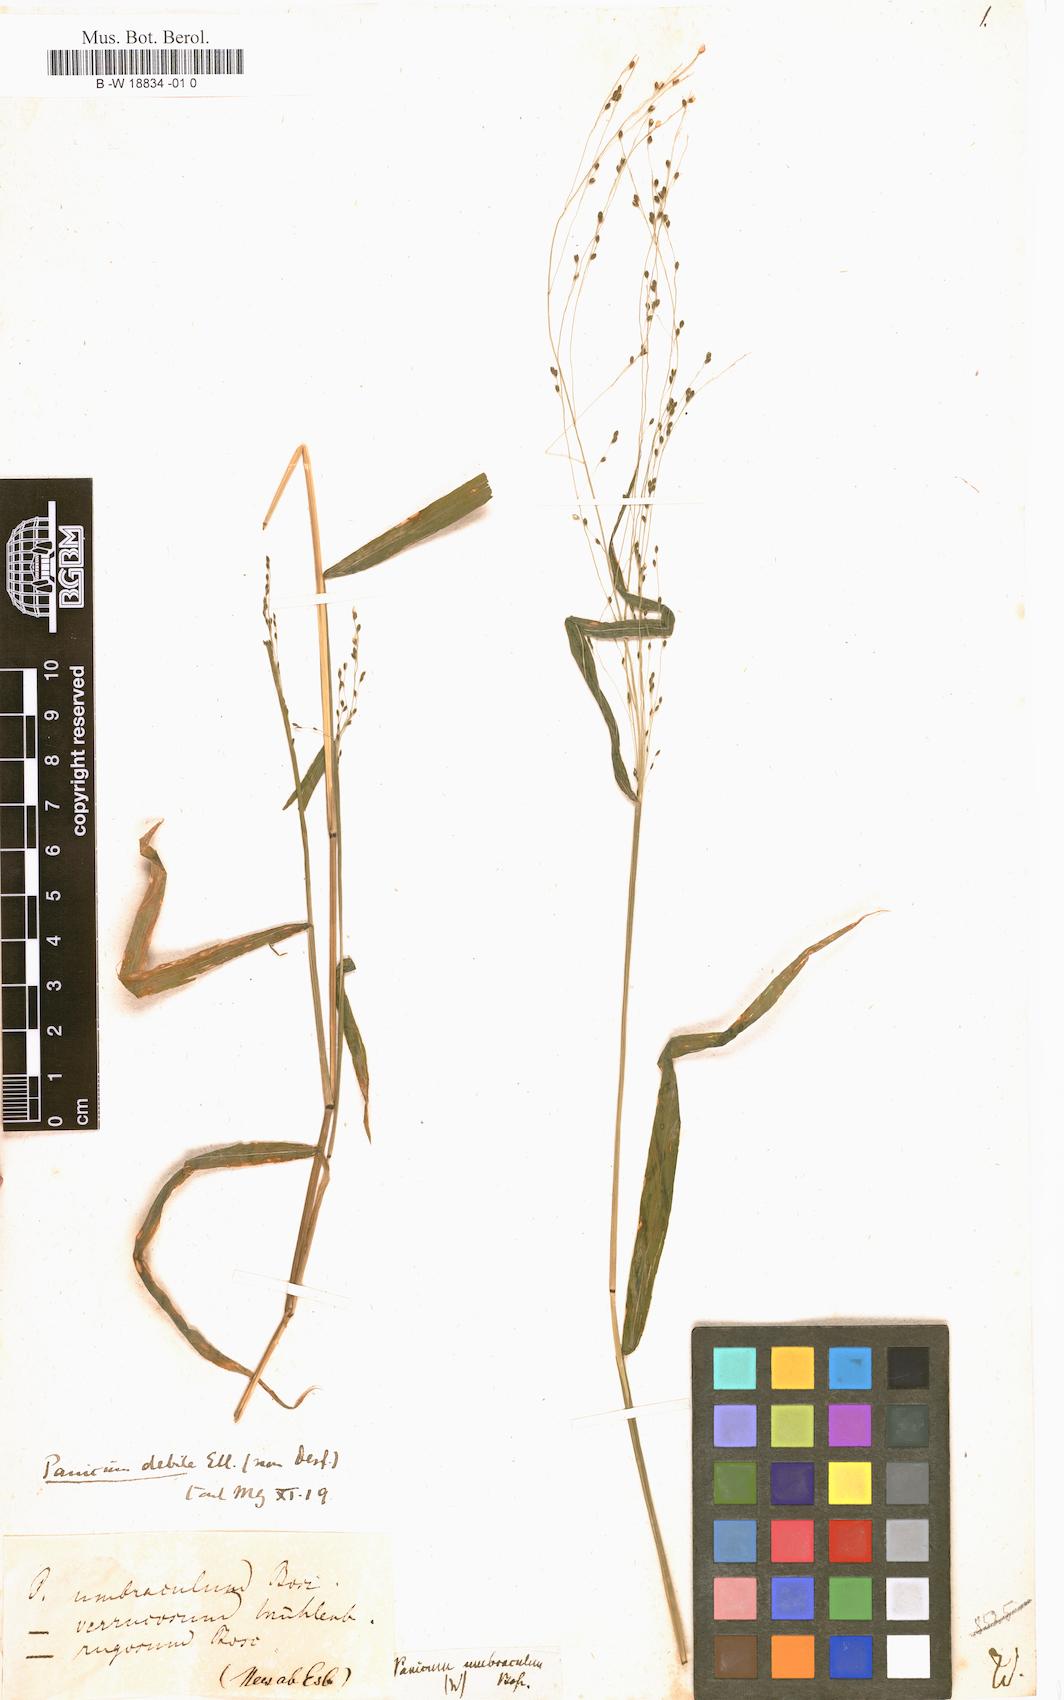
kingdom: Plantae
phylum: Tracheophyta
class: Liliopsida
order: Poales
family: Poaceae
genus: Kellochloa
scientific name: Kellochloa verrucosa
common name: Warty panic grass
